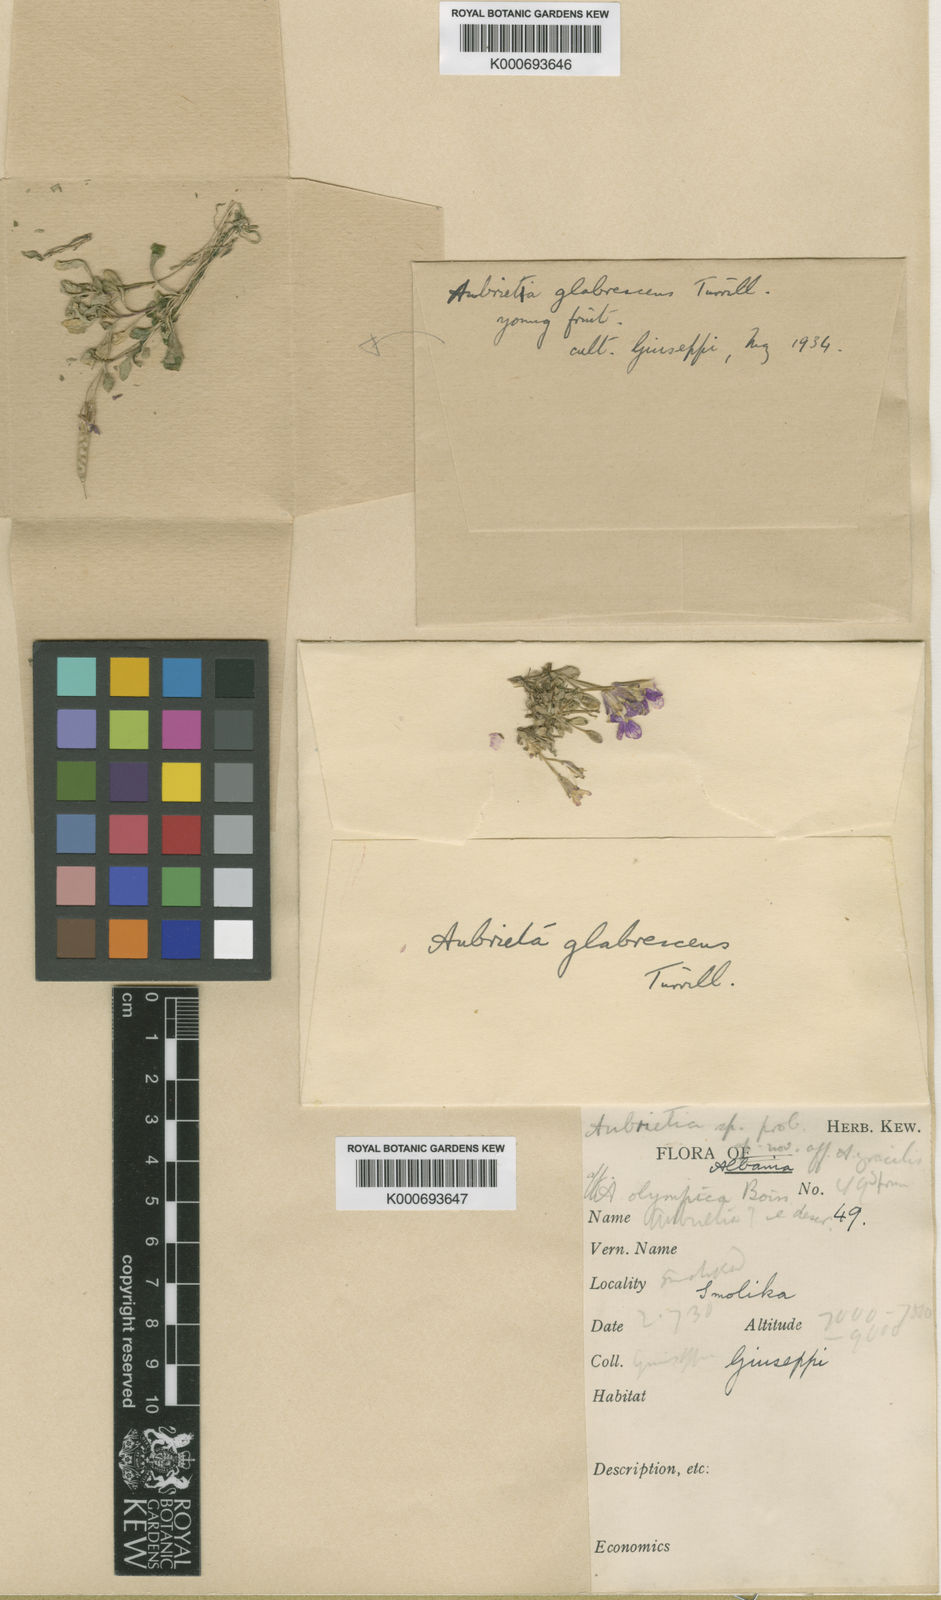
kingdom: Plantae
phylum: Tracheophyta
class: Magnoliopsida
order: Brassicales
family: Brassicaceae
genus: Aubrieta
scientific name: Aubrieta glabrescens
